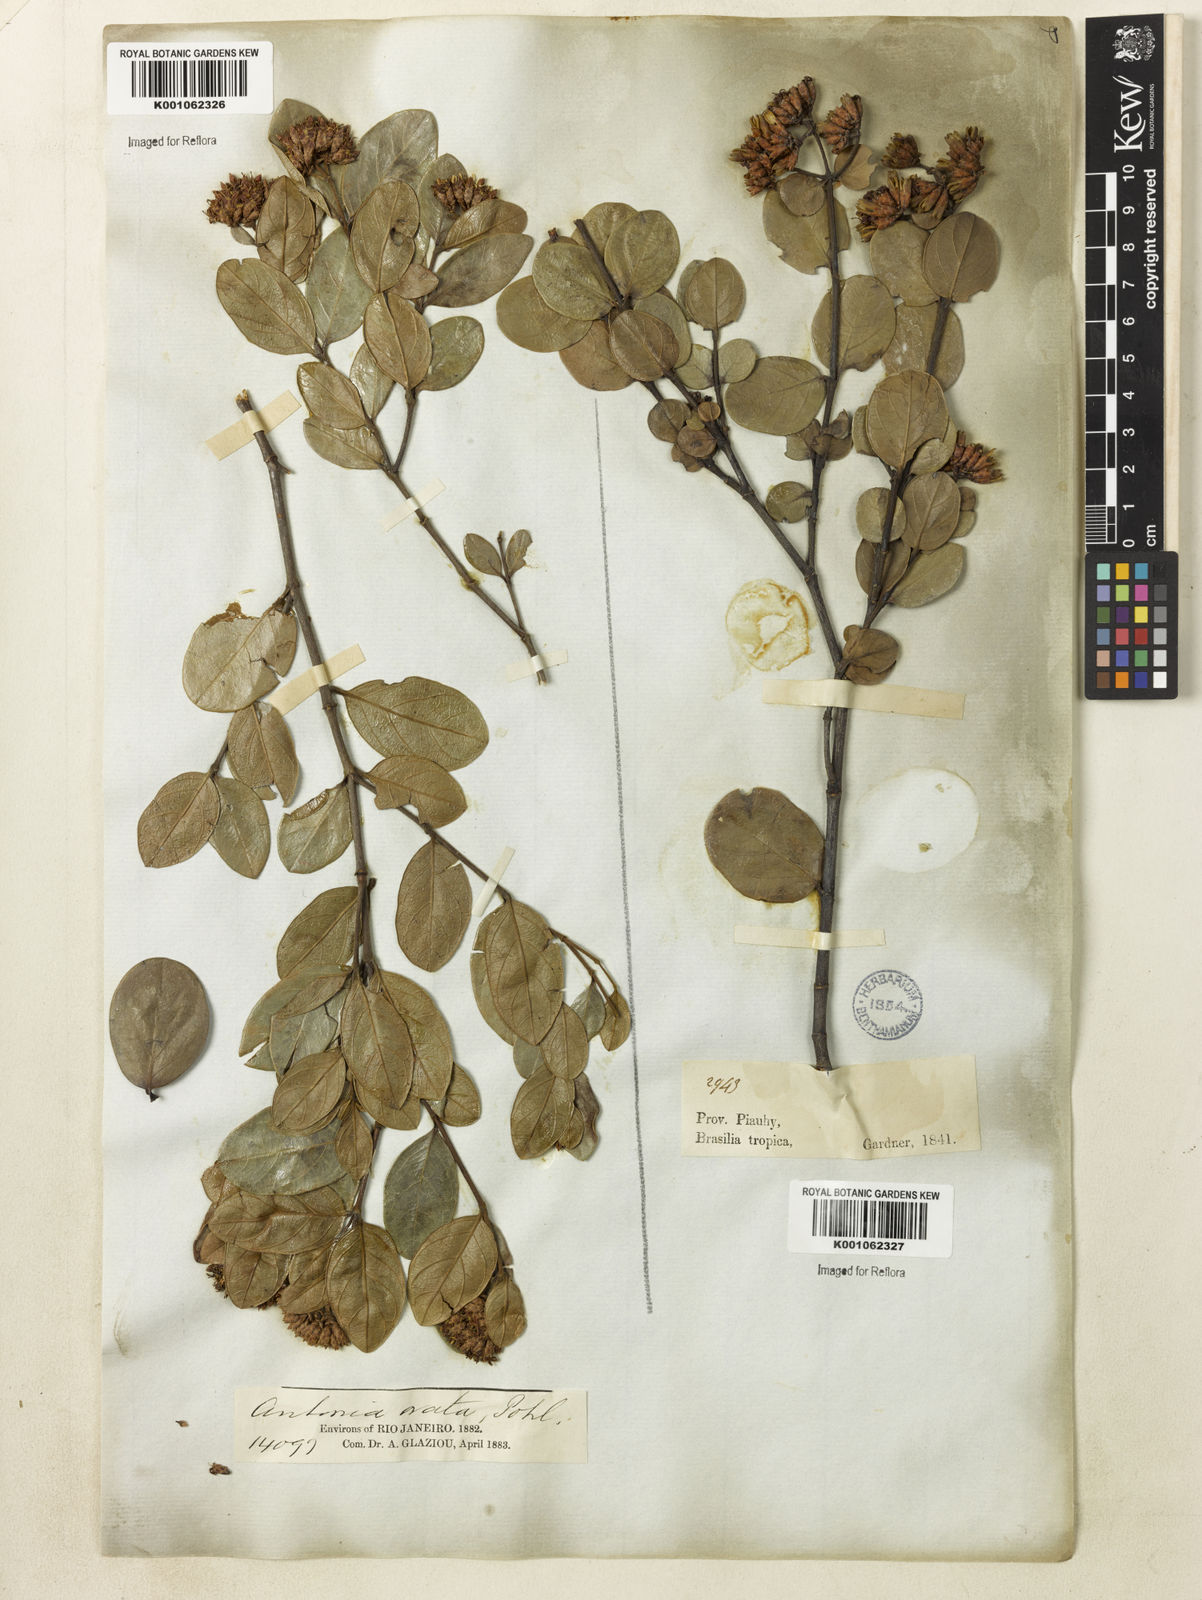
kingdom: Plantae
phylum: Tracheophyta
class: Magnoliopsida
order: Gentianales
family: Loganiaceae
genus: Antonia
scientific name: Antonia ovata
